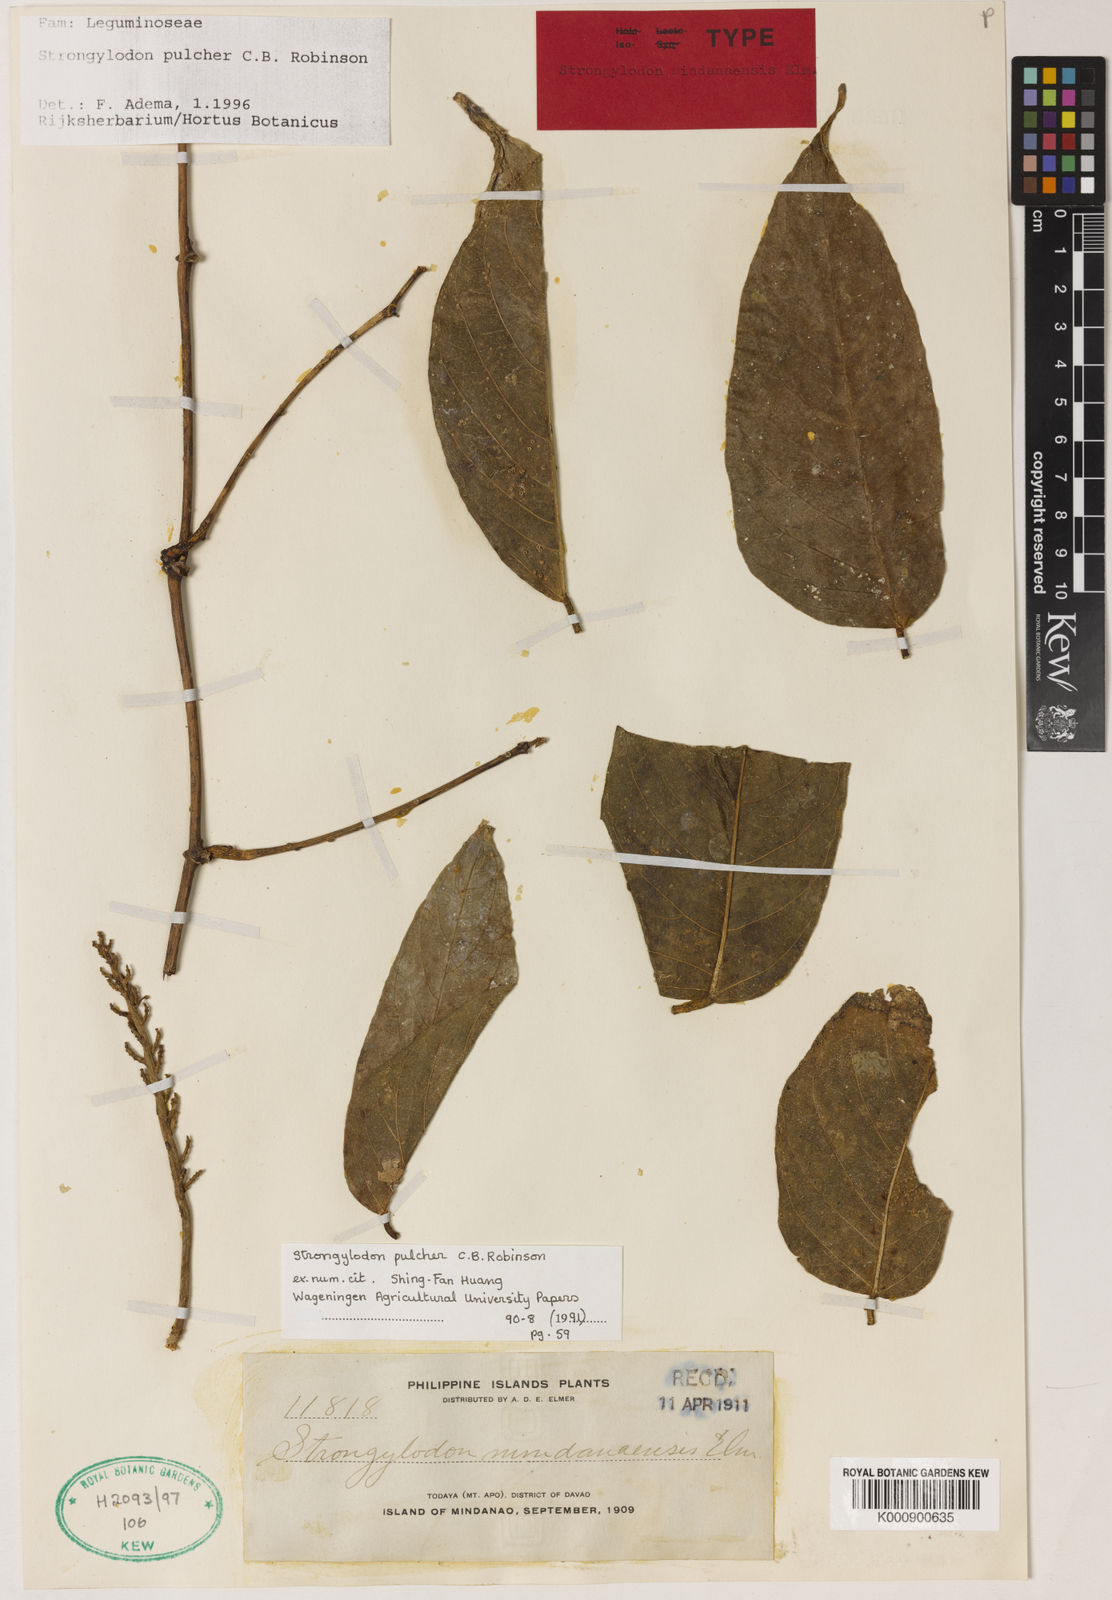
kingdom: Plantae
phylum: Tracheophyta
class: Magnoliopsida
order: Fabales
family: Fabaceae
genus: Strongylodon
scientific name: Strongylodon pulcher
